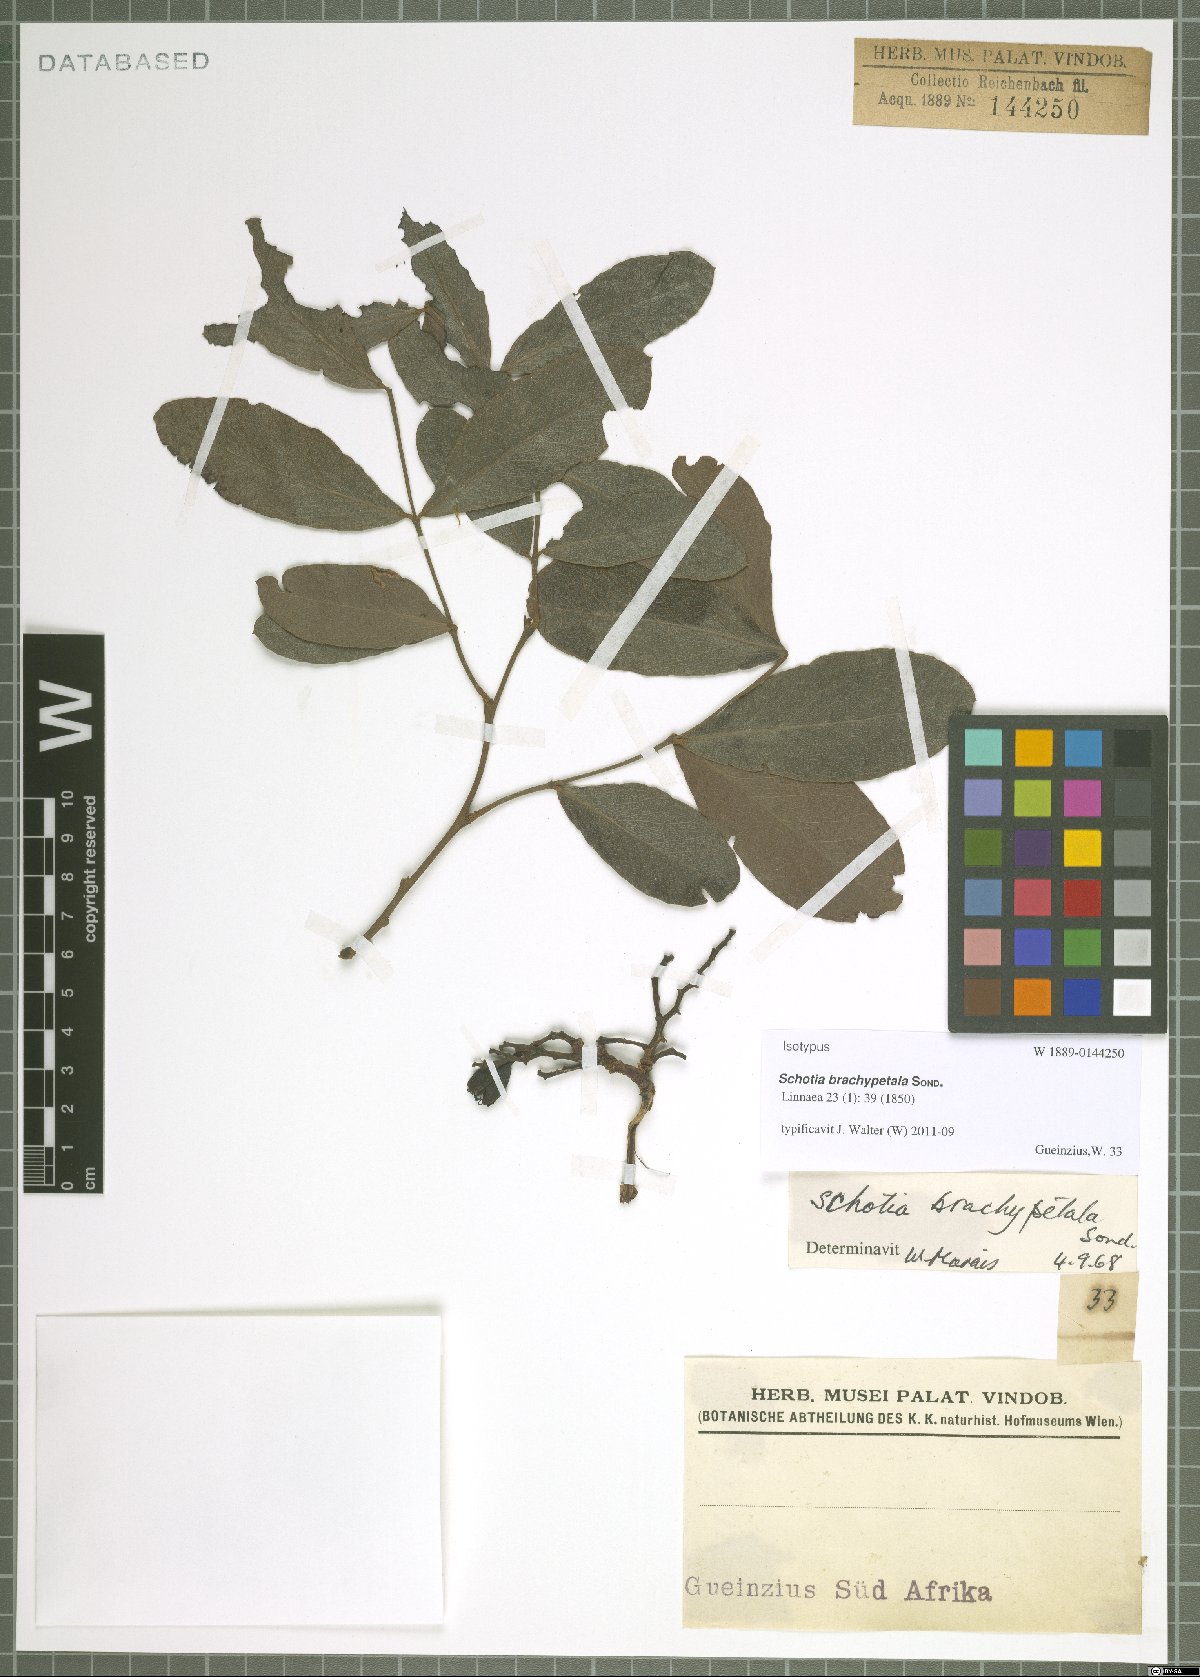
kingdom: Plantae
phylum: Tracheophyta
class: Magnoliopsida
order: Fabales
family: Fabaceae
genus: Schotia
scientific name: Schotia brachypetala
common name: Weeping boer-bean
